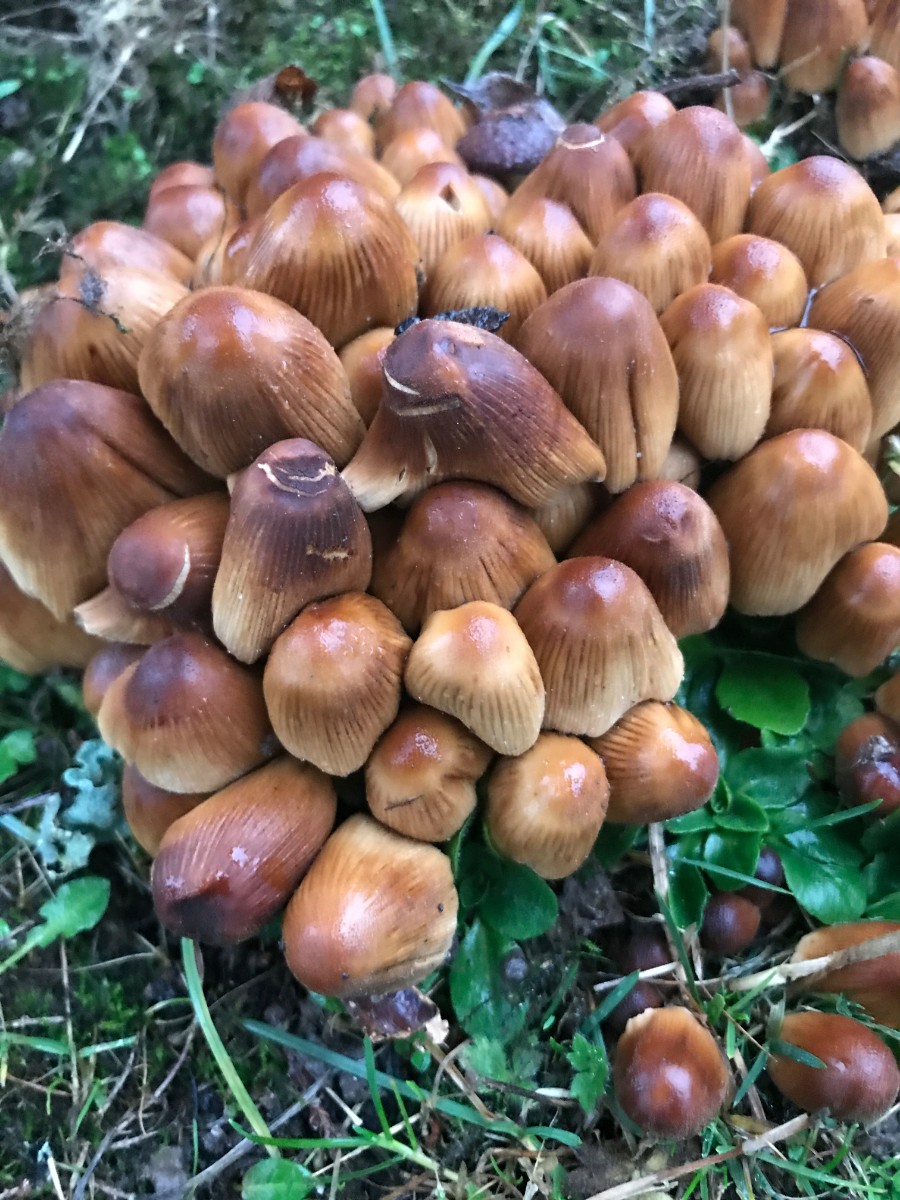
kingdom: Fungi
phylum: Basidiomycota
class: Agaricomycetes
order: Agaricales
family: Psathyrellaceae
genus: Coprinellus
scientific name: Coprinellus micaceus
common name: glimmer-blækhat
